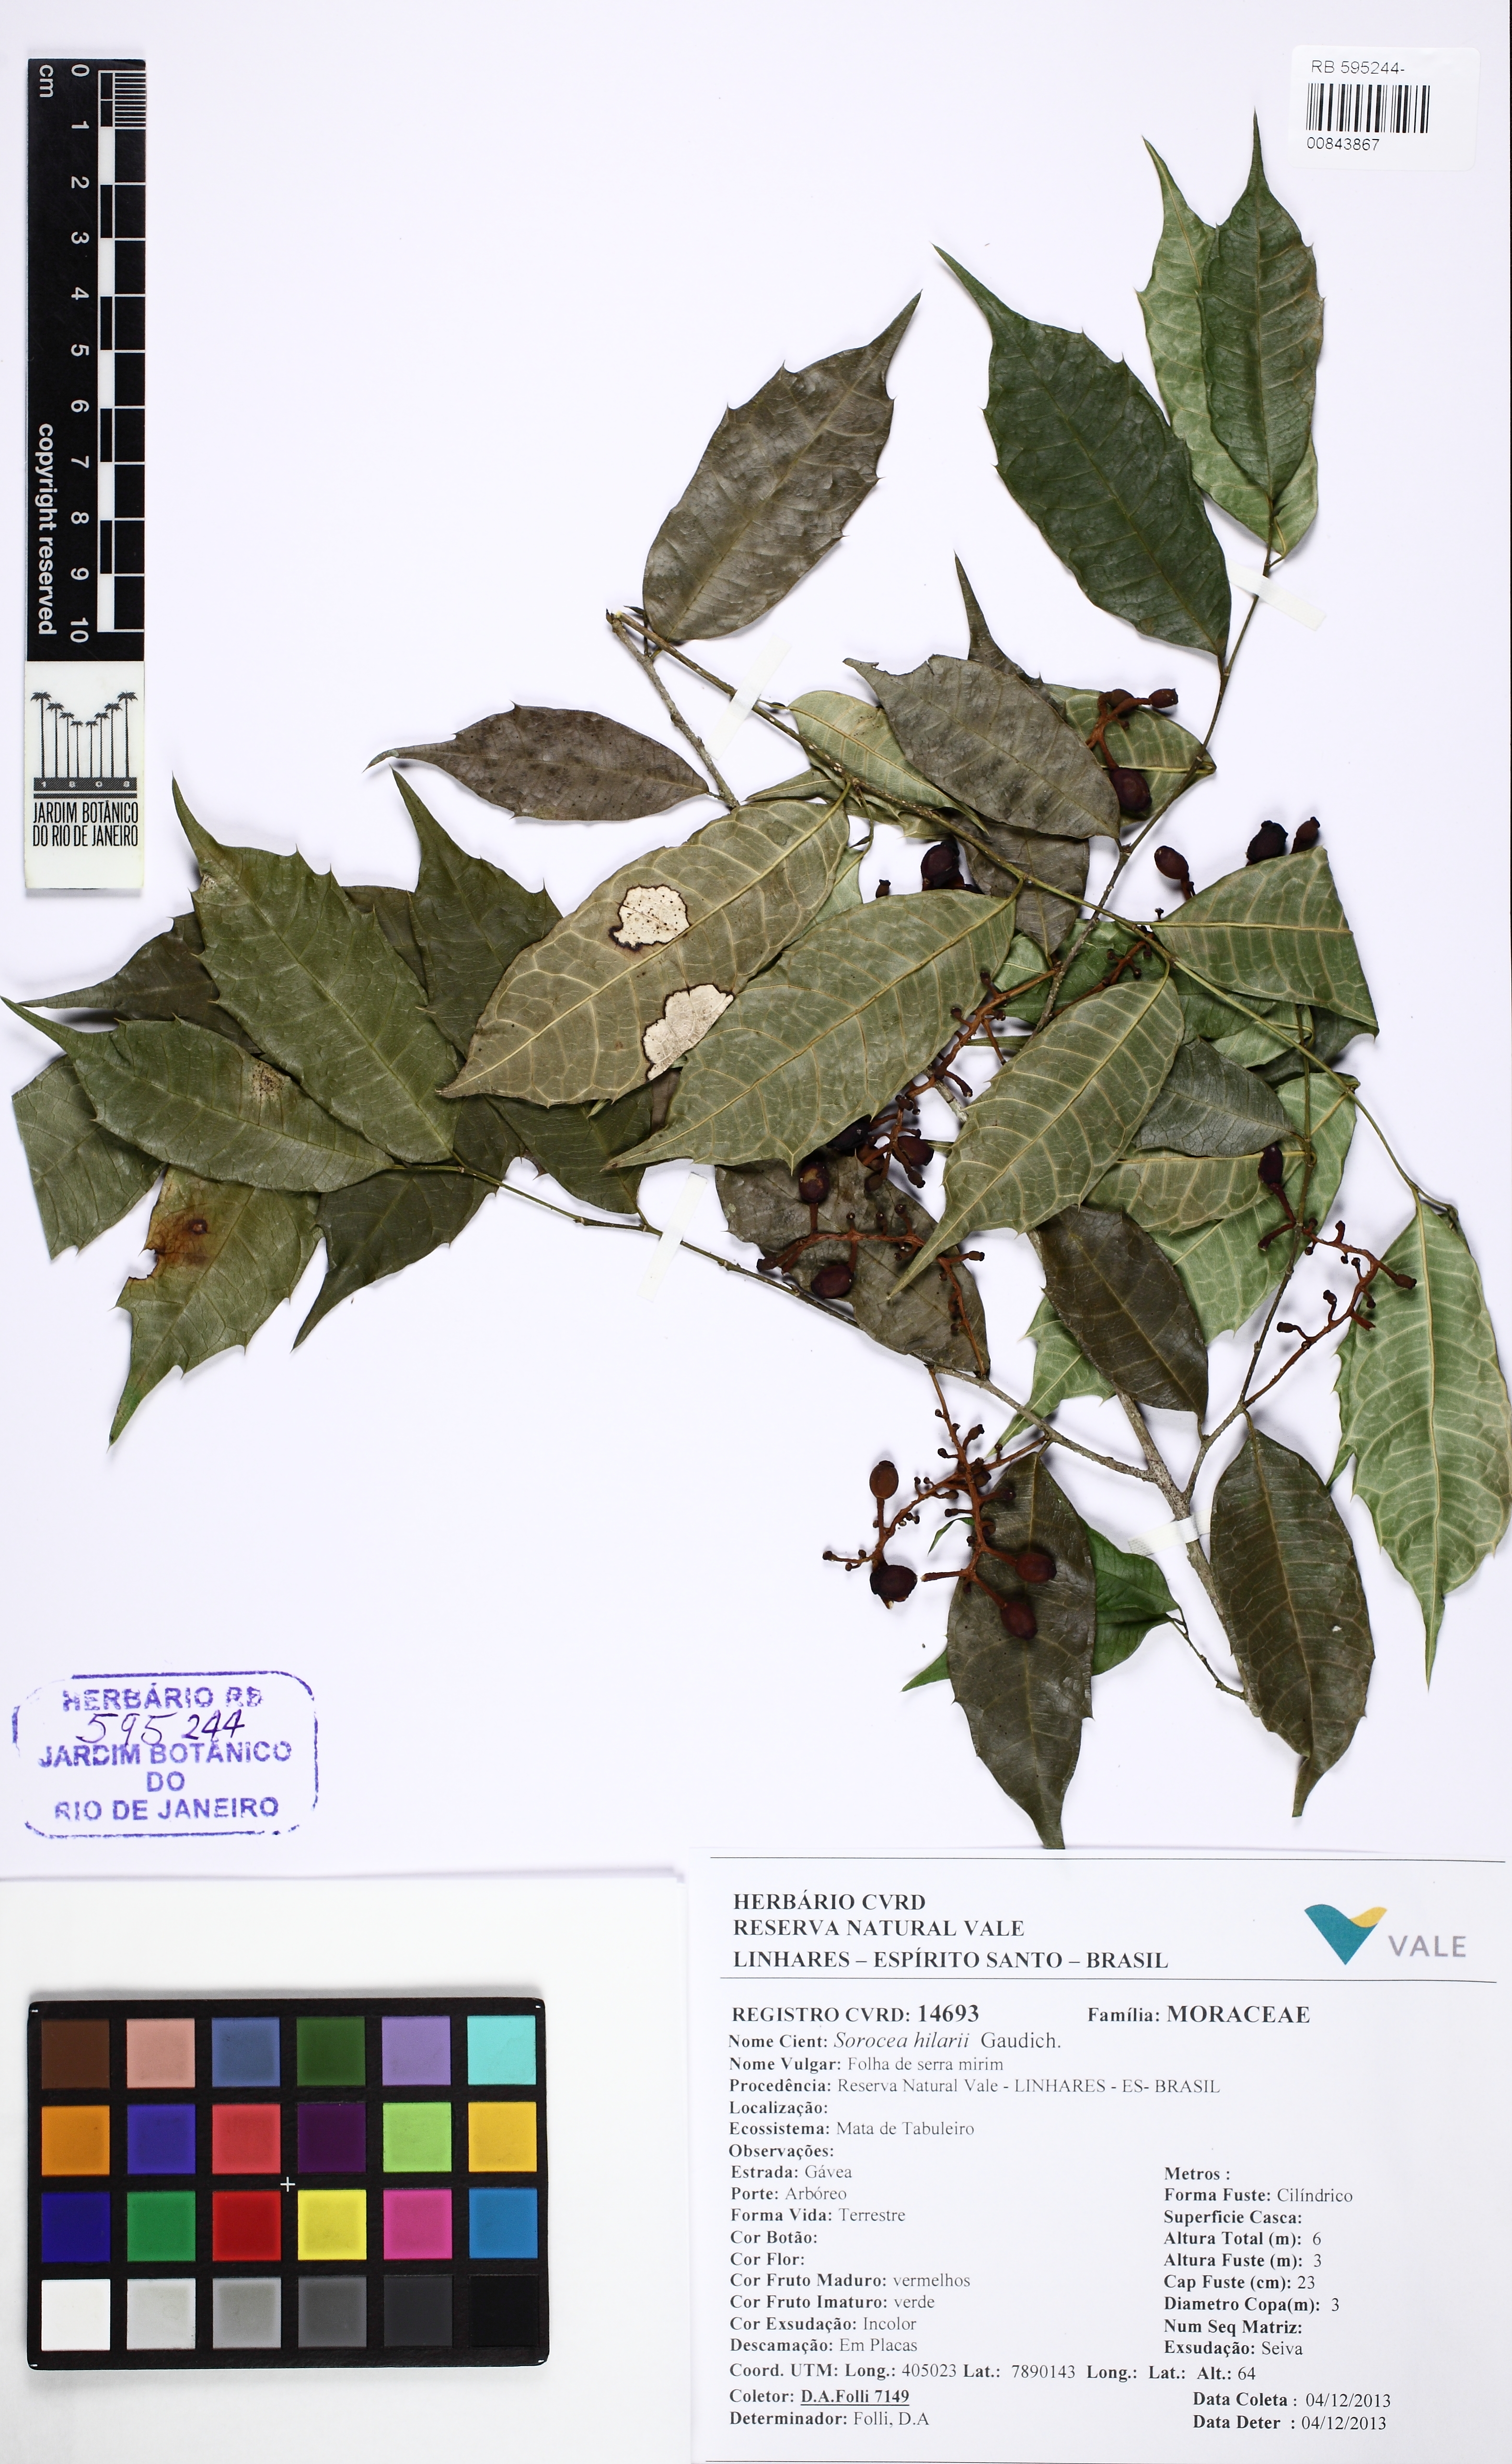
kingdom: Plantae
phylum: Tracheophyta
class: Magnoliopsida
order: Rosales
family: Moraceae
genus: Sorocea
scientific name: Sorocea hilarii
